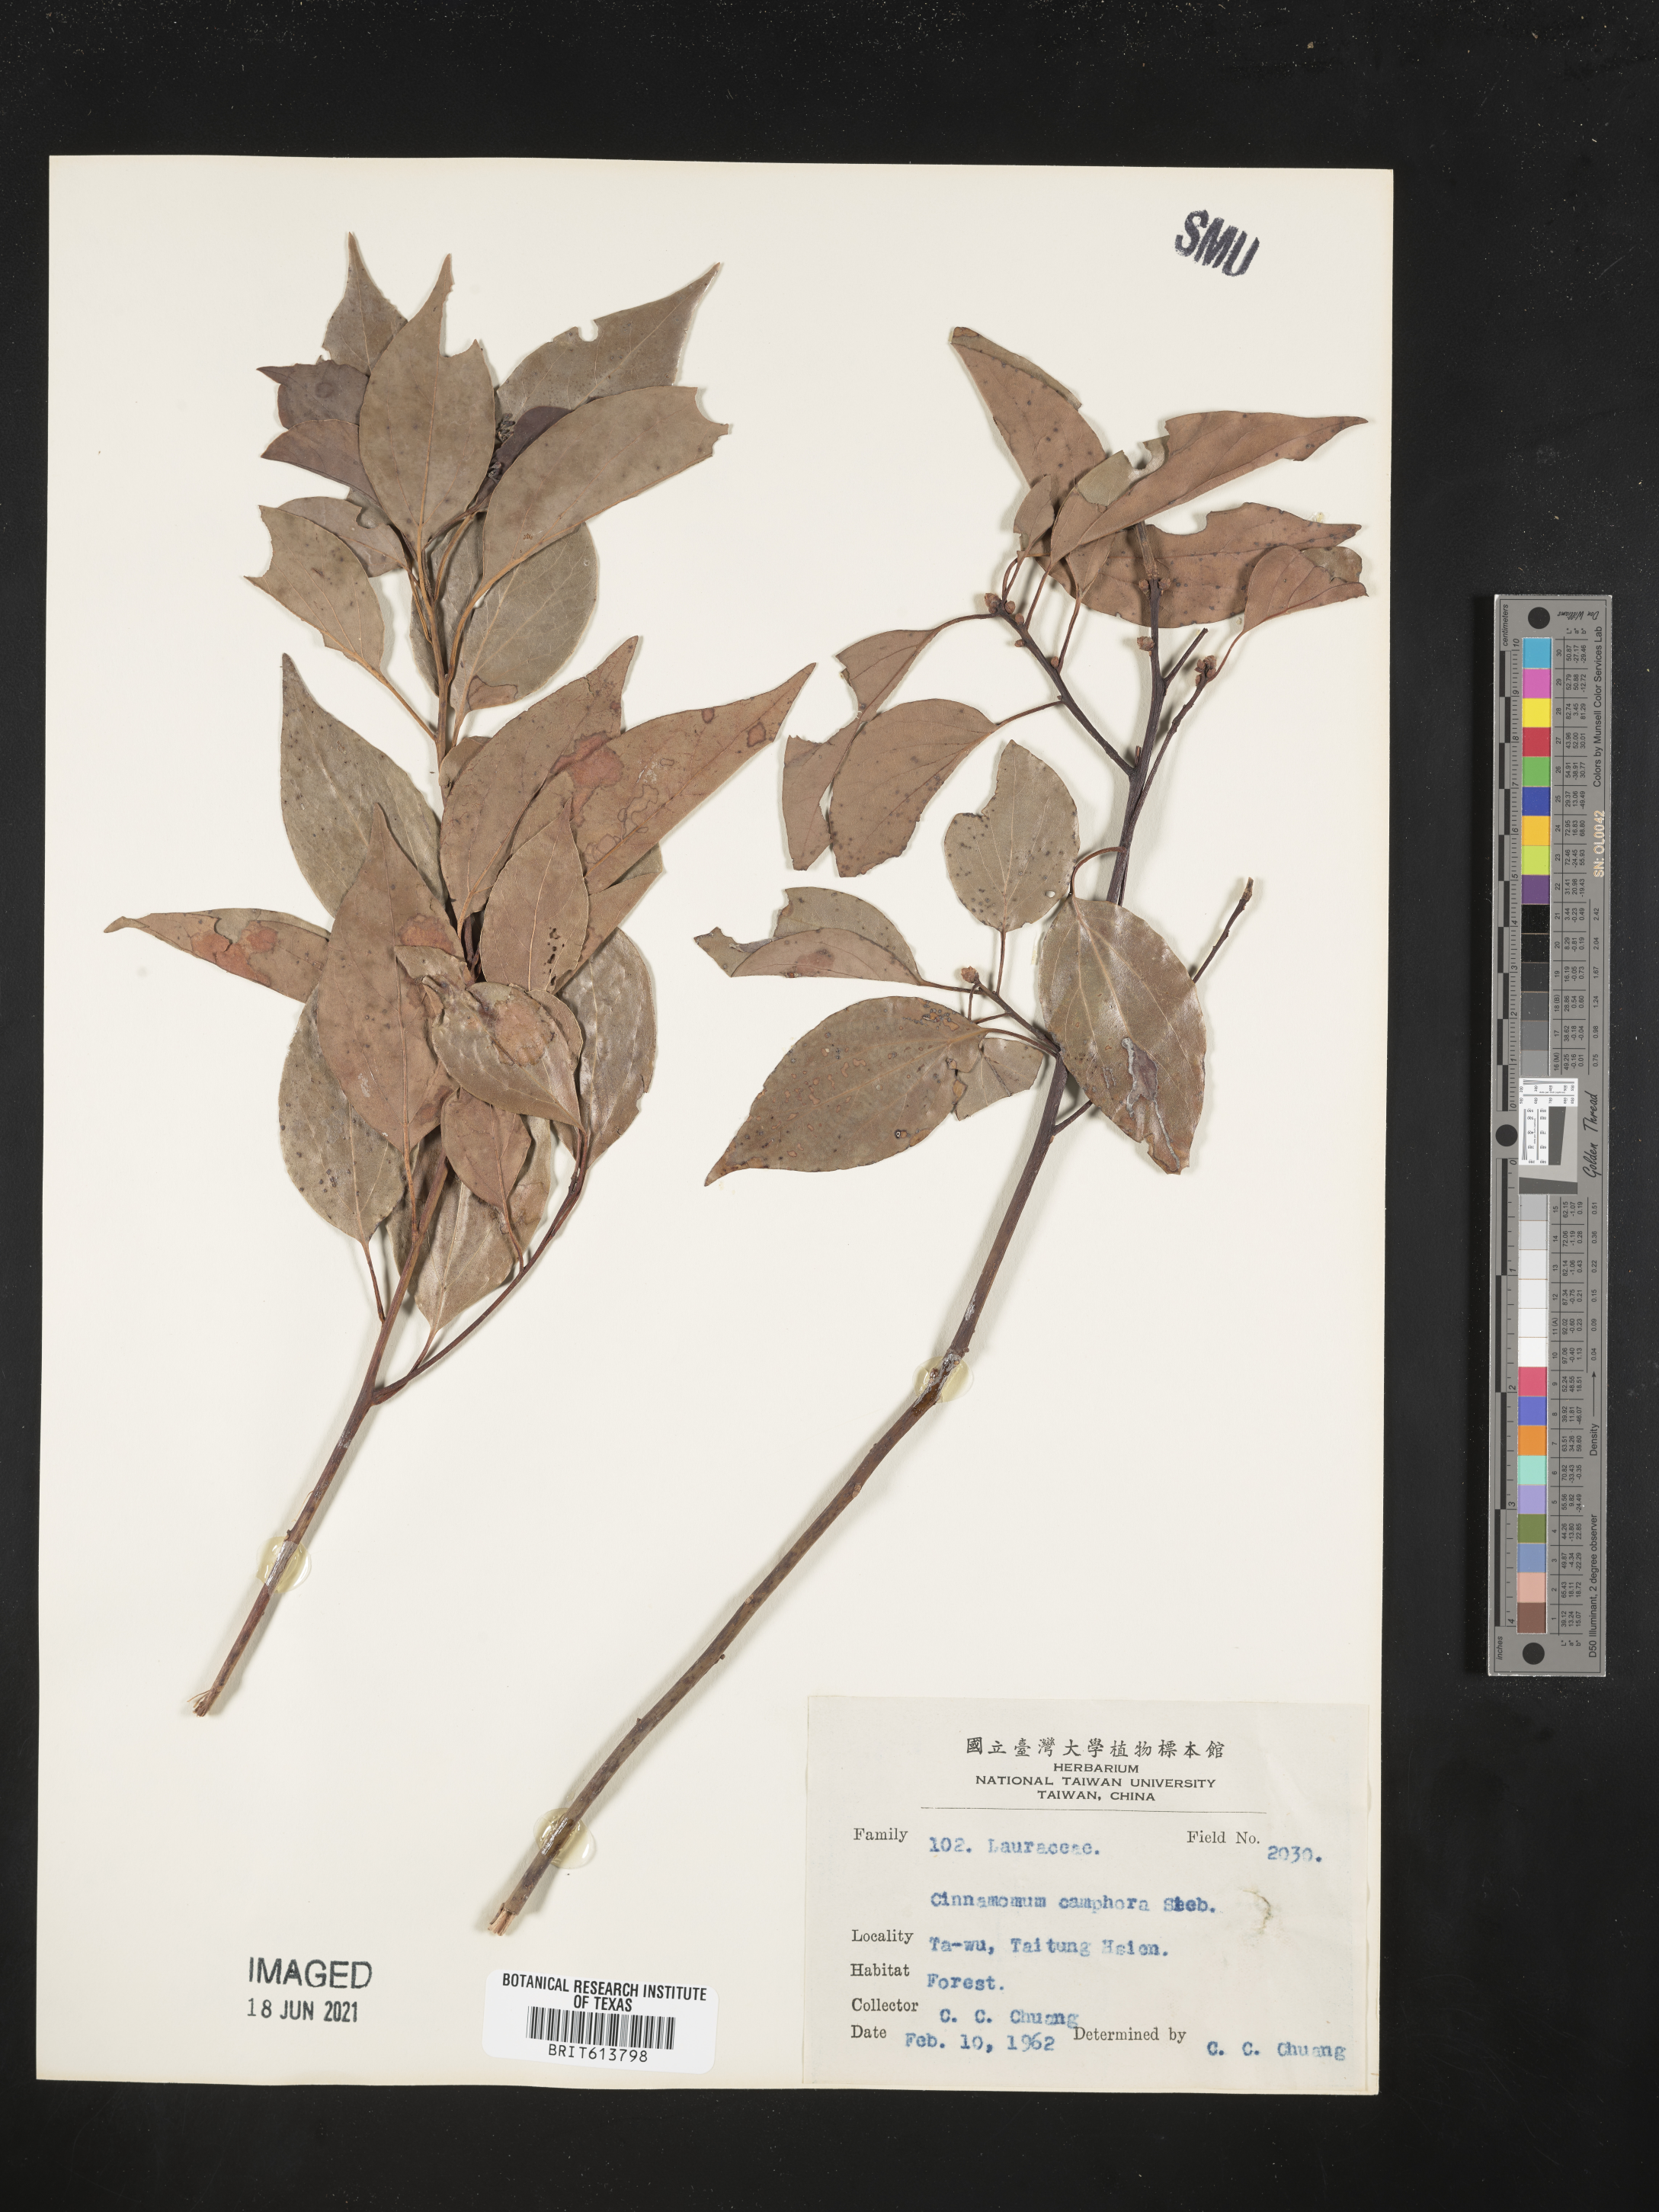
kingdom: Plantae
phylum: Tracheophyta
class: Magnoliopsida
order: Laurales
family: Lauraceae
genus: Cinnamomum
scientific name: Cinnamomum camphora
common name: Camphortree
